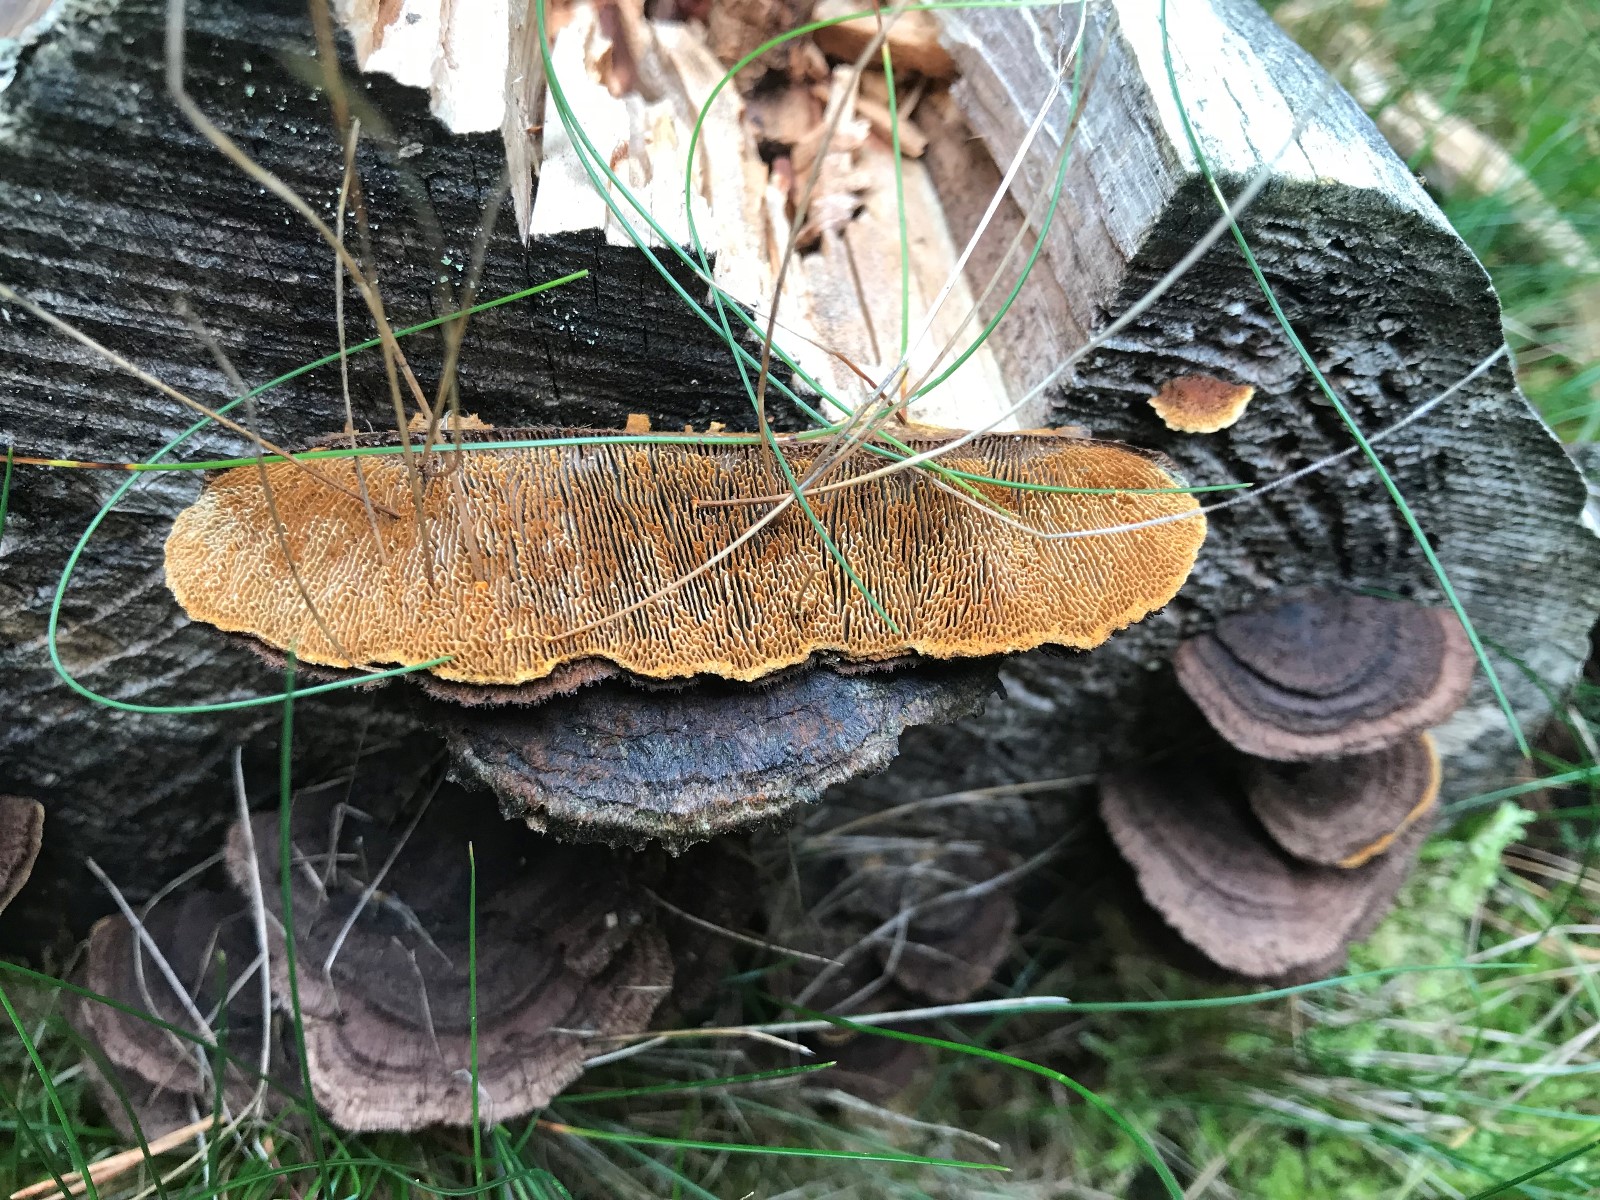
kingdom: Fungi
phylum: Basidiomycota
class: Agaricomycetes
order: Gloeophyllales
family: Gloeophyllaceae
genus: Gloeophyllum
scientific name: Gloeophyllum sepiarium
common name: fyrre-korkhat
